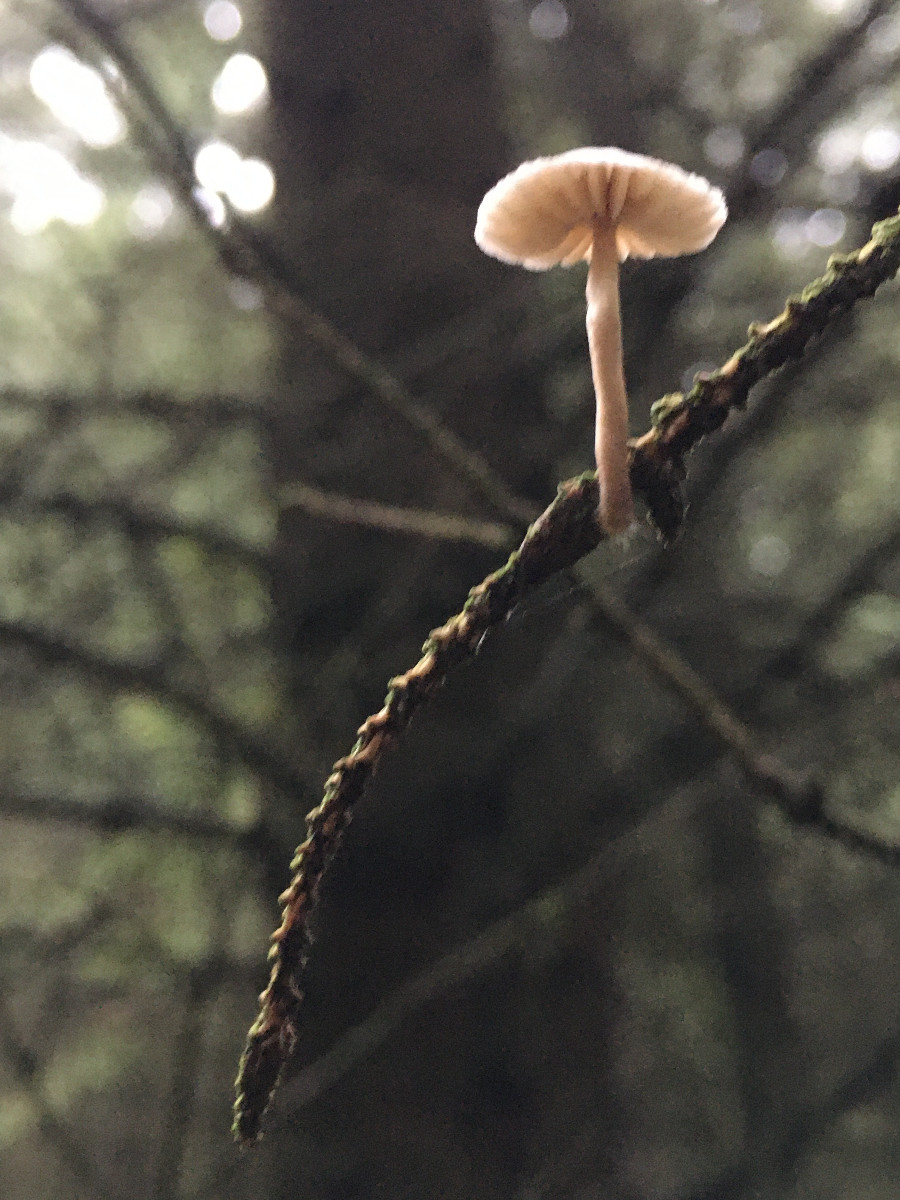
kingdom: Fungi
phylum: Basidiomycota
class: Agaricomycetes
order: Agaricales
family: Mycenaceae
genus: Mycena
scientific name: Mycena
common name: huesvamp
